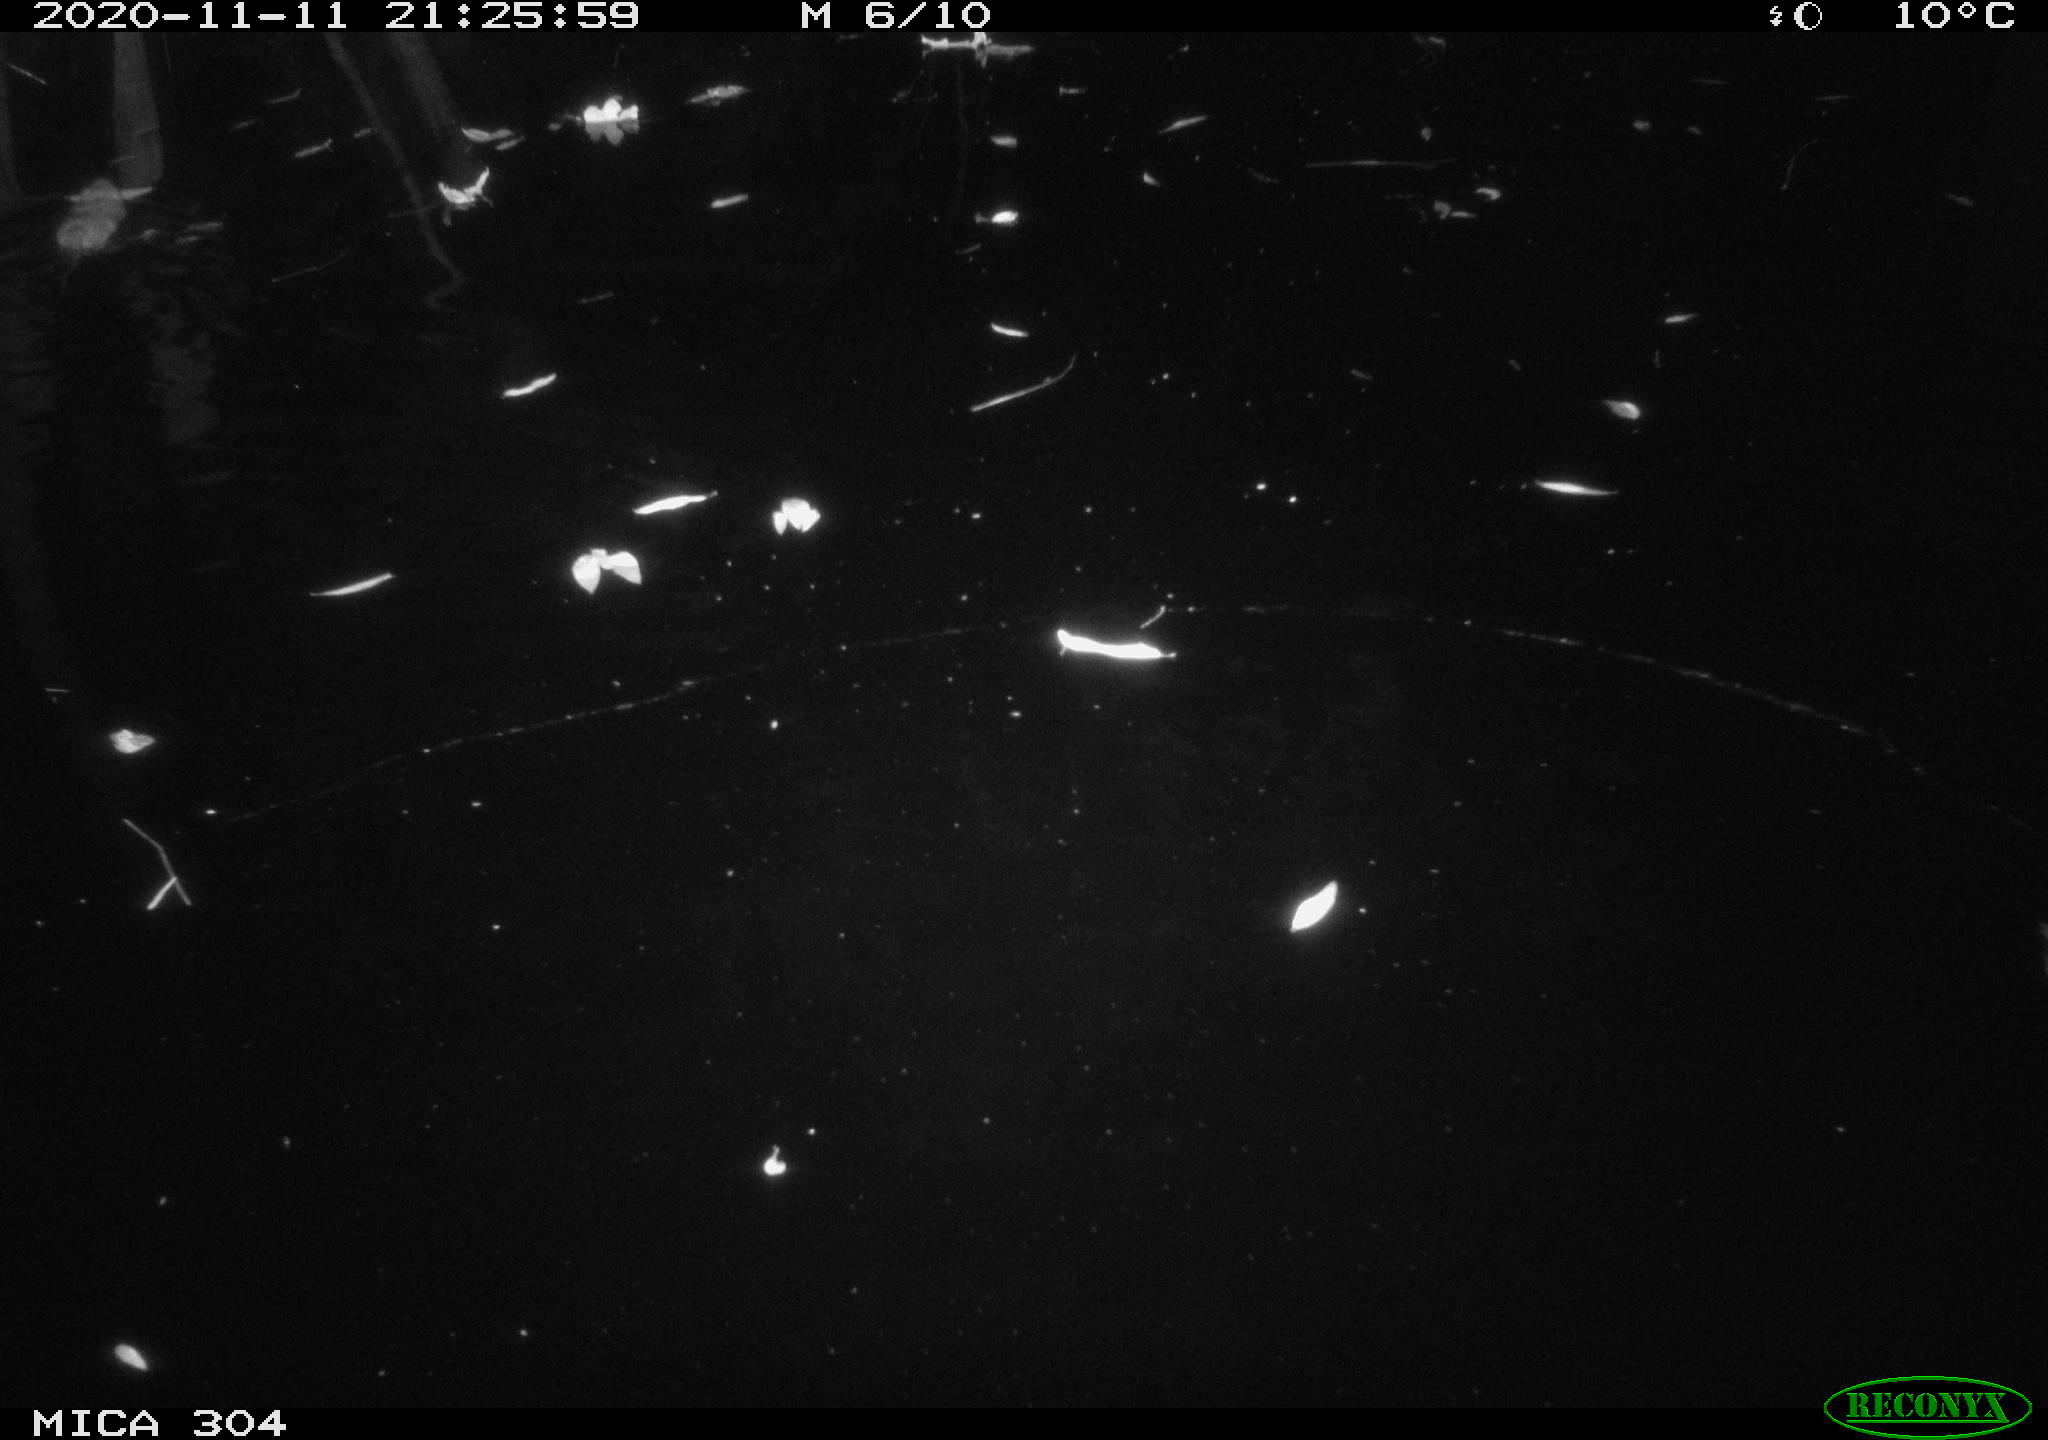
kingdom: Animalia
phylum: Chordata
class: Mammalia
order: Rodentia
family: Cricetidae
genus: Ondatra
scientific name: Ondatra zibethicus
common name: Muskrat
